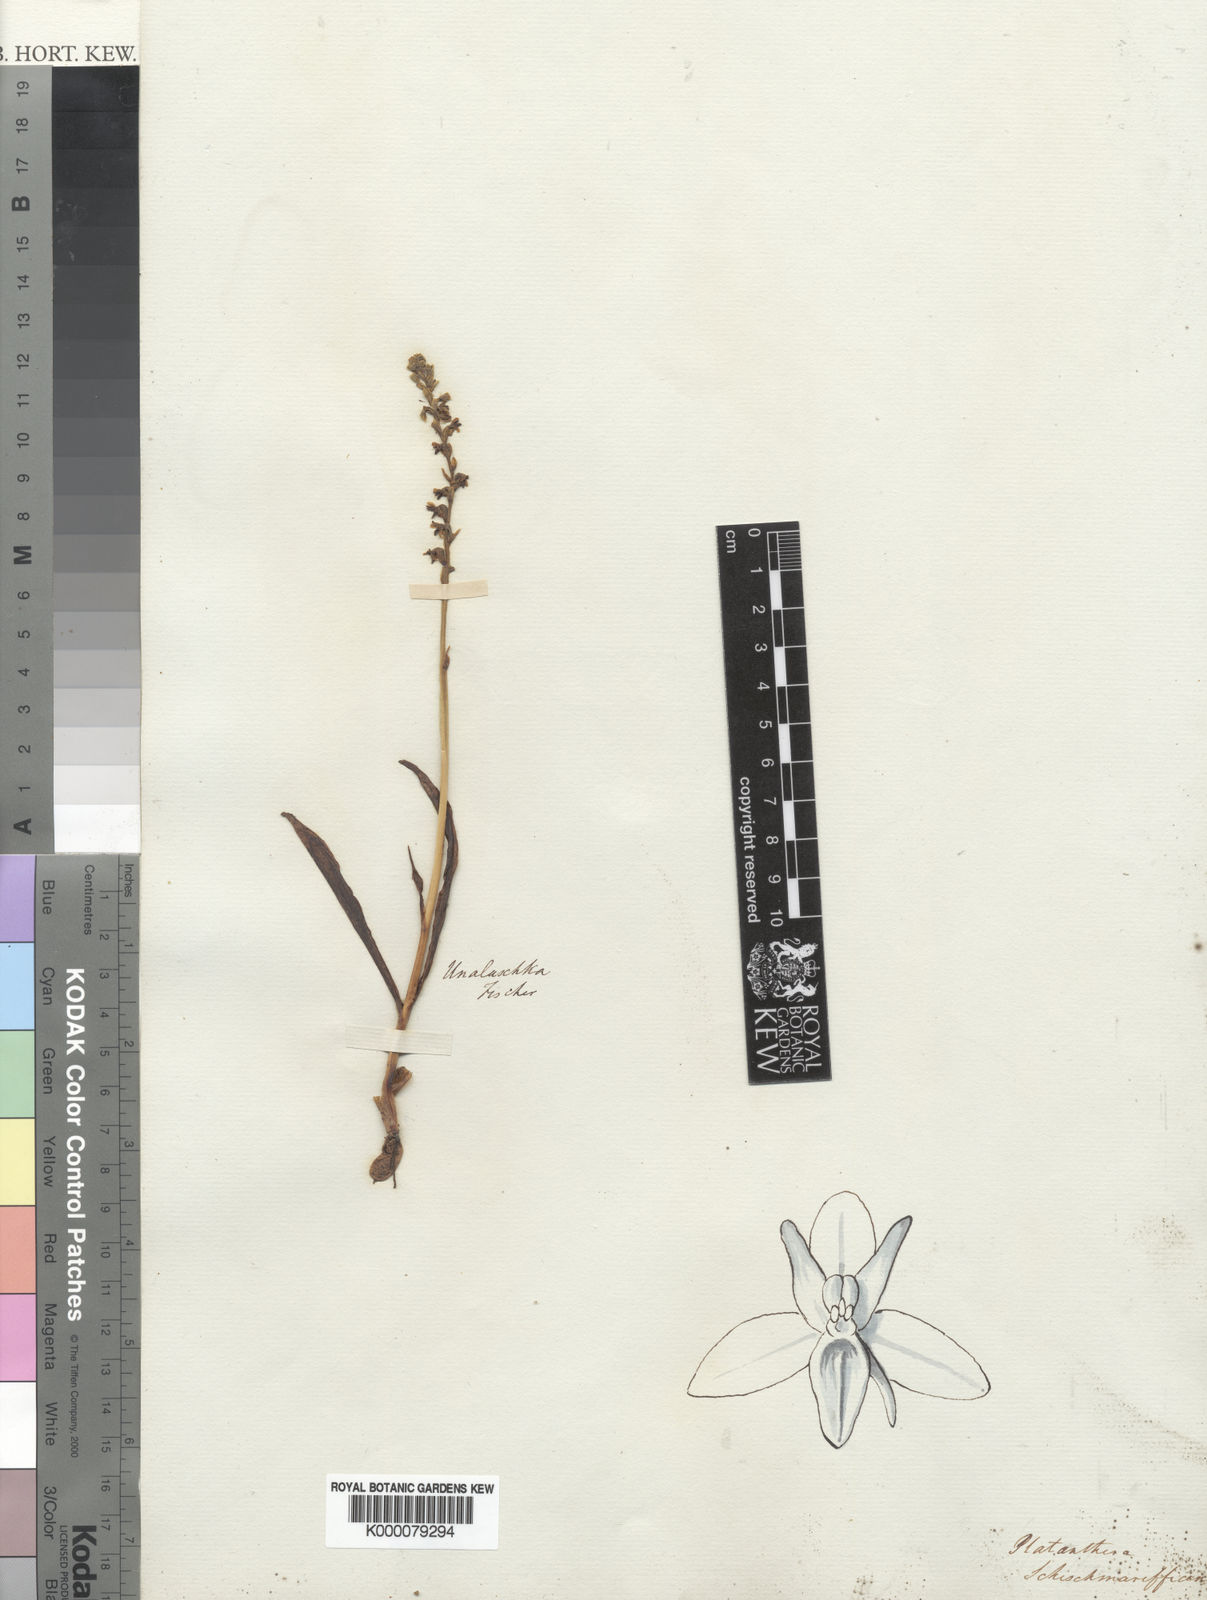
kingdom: Plantae
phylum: Tracheophyta
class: Liliopsida
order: Asparagales
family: Orchidaceae
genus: Platanthera
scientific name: Platanthera
